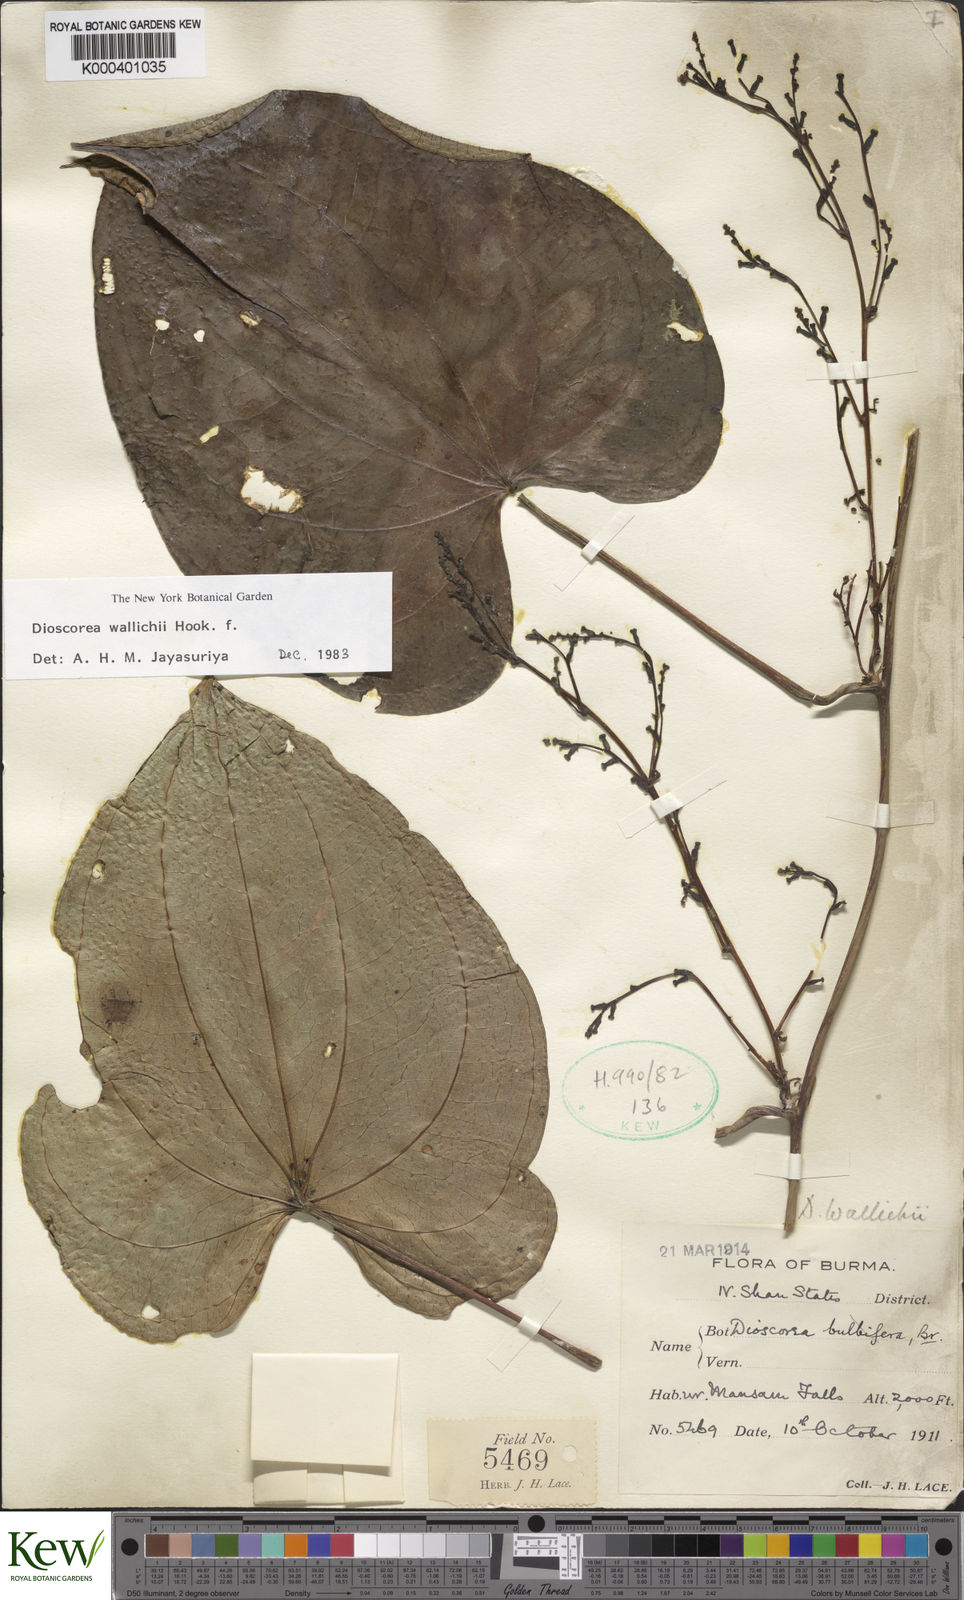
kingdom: Plantae
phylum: Tracheophyta
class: Liliopsida
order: Dioscoreales
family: Dioscoreaceae
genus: Dioscorea
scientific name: Dioscorea wallichii
